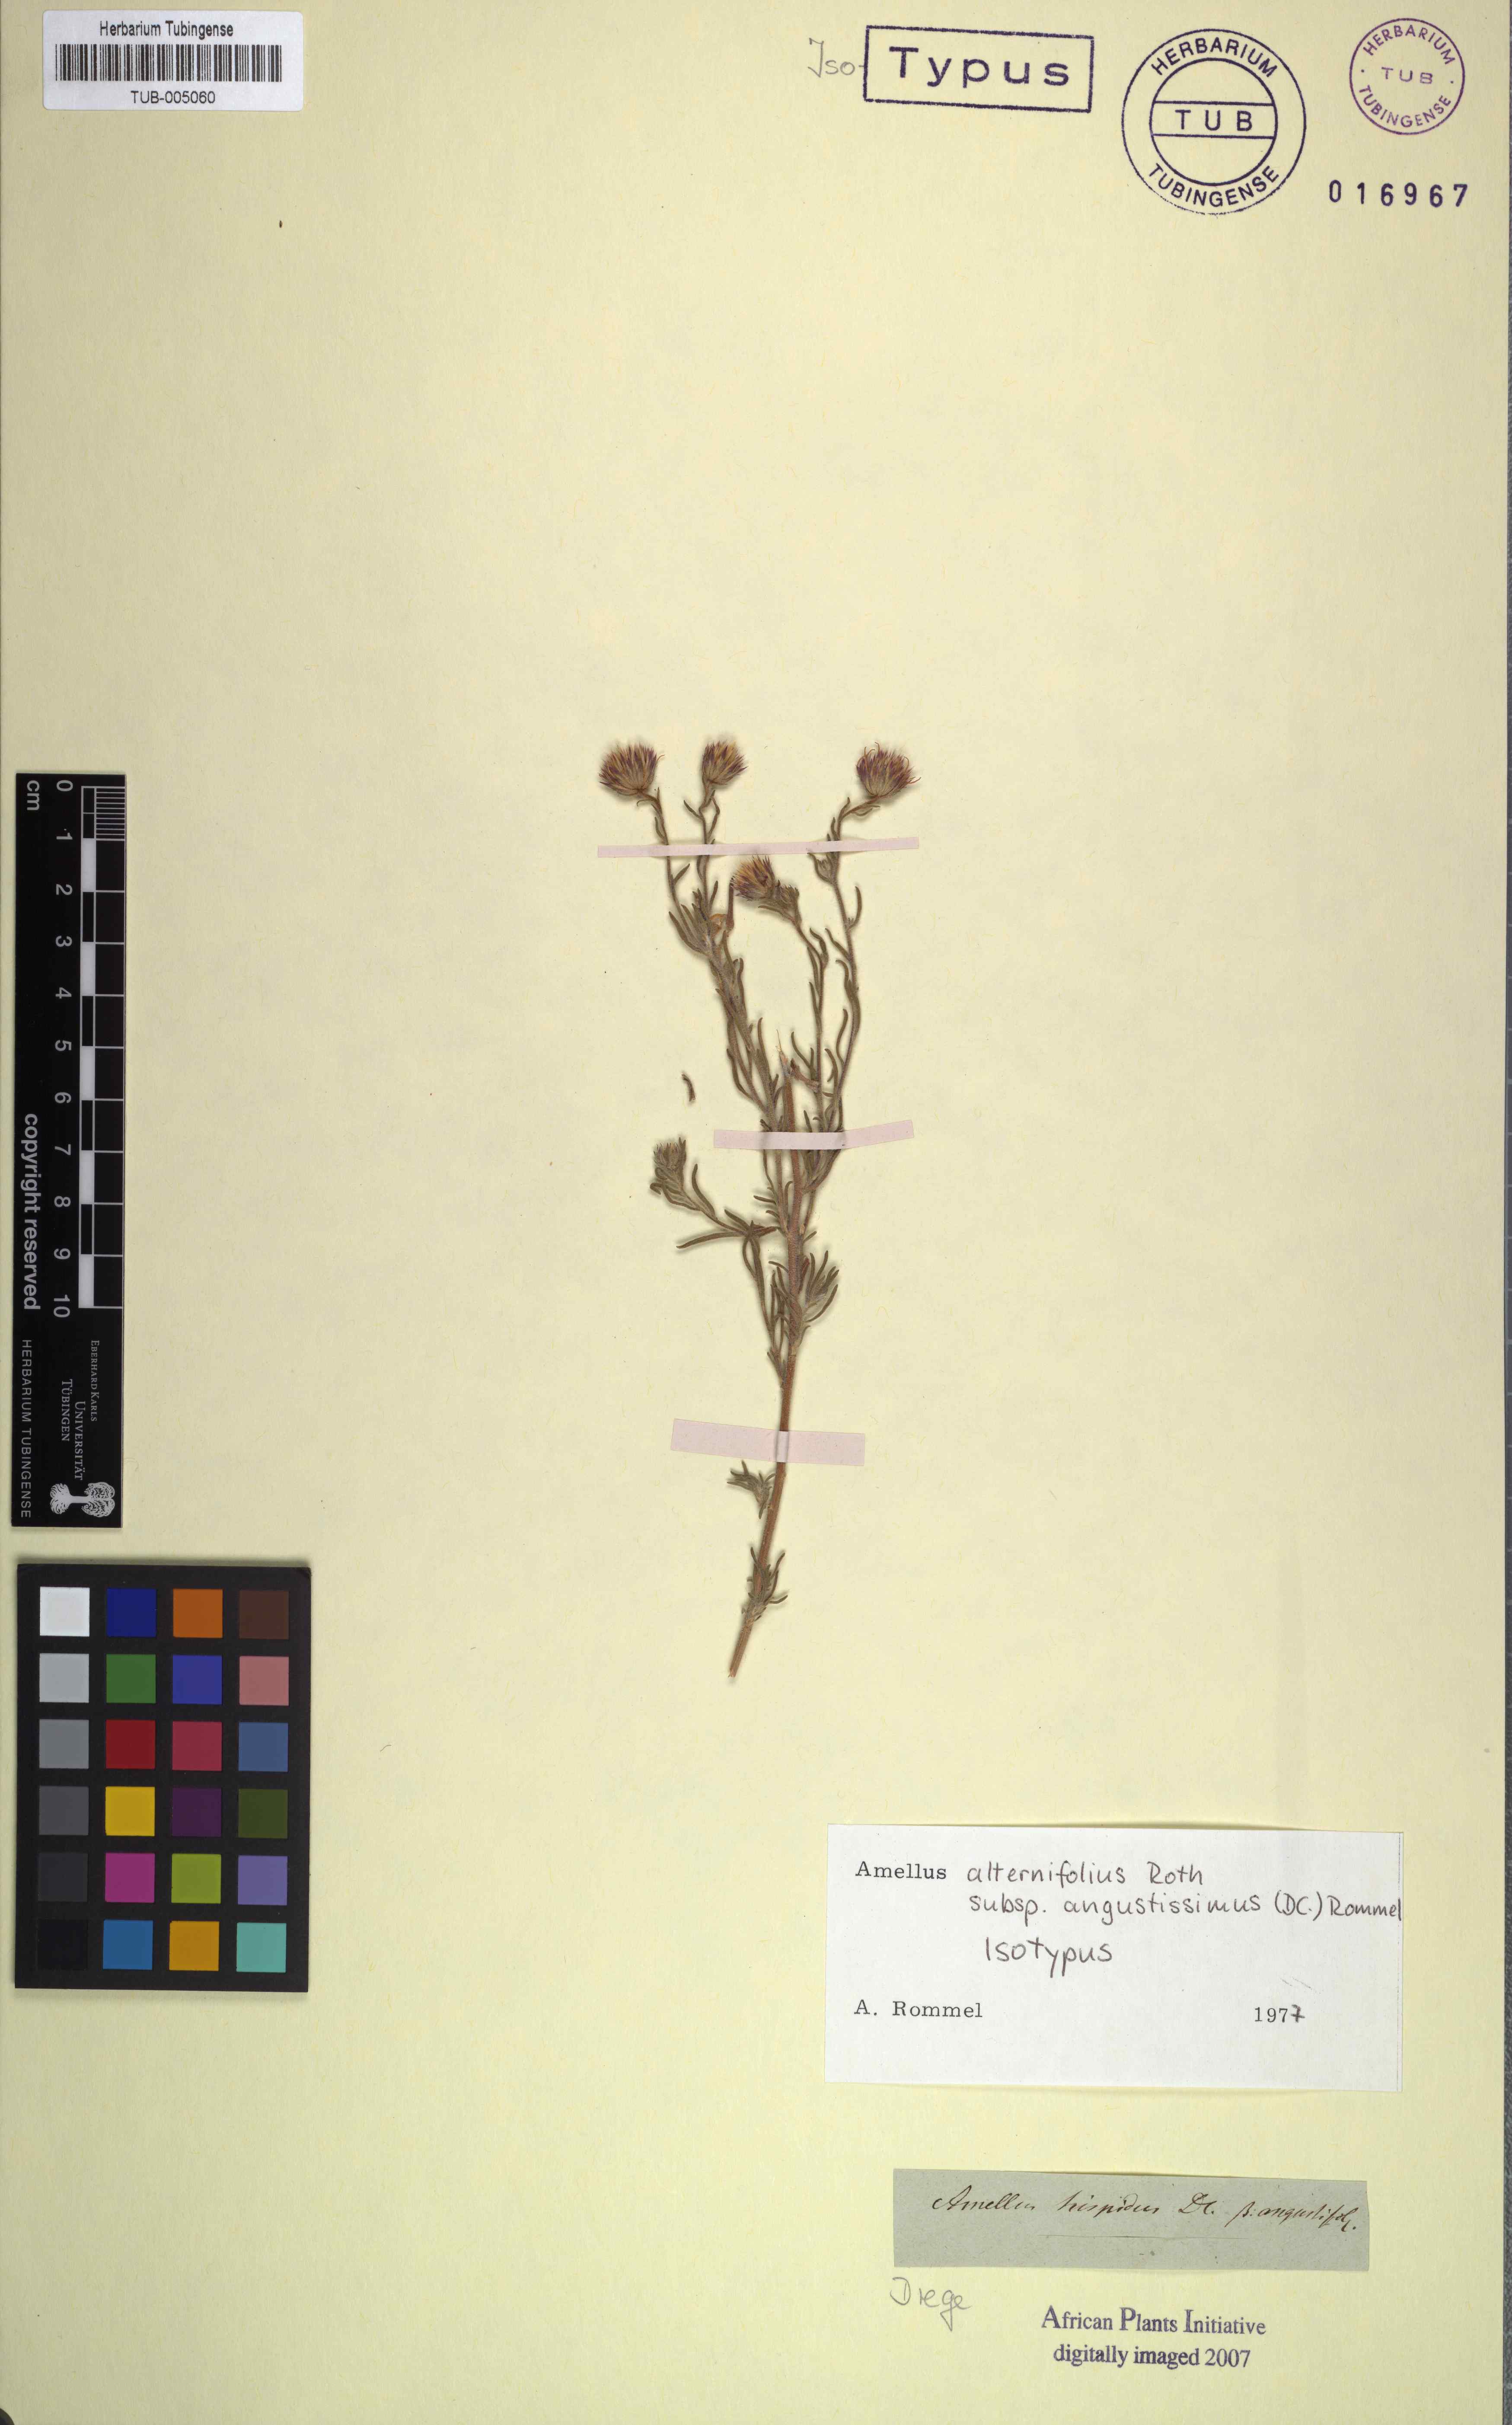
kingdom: Plantae
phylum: Tracheophyta
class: Magnoliopsida
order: Asterales
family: Asteraceae
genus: Amellus
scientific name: Amellus alternifolius
